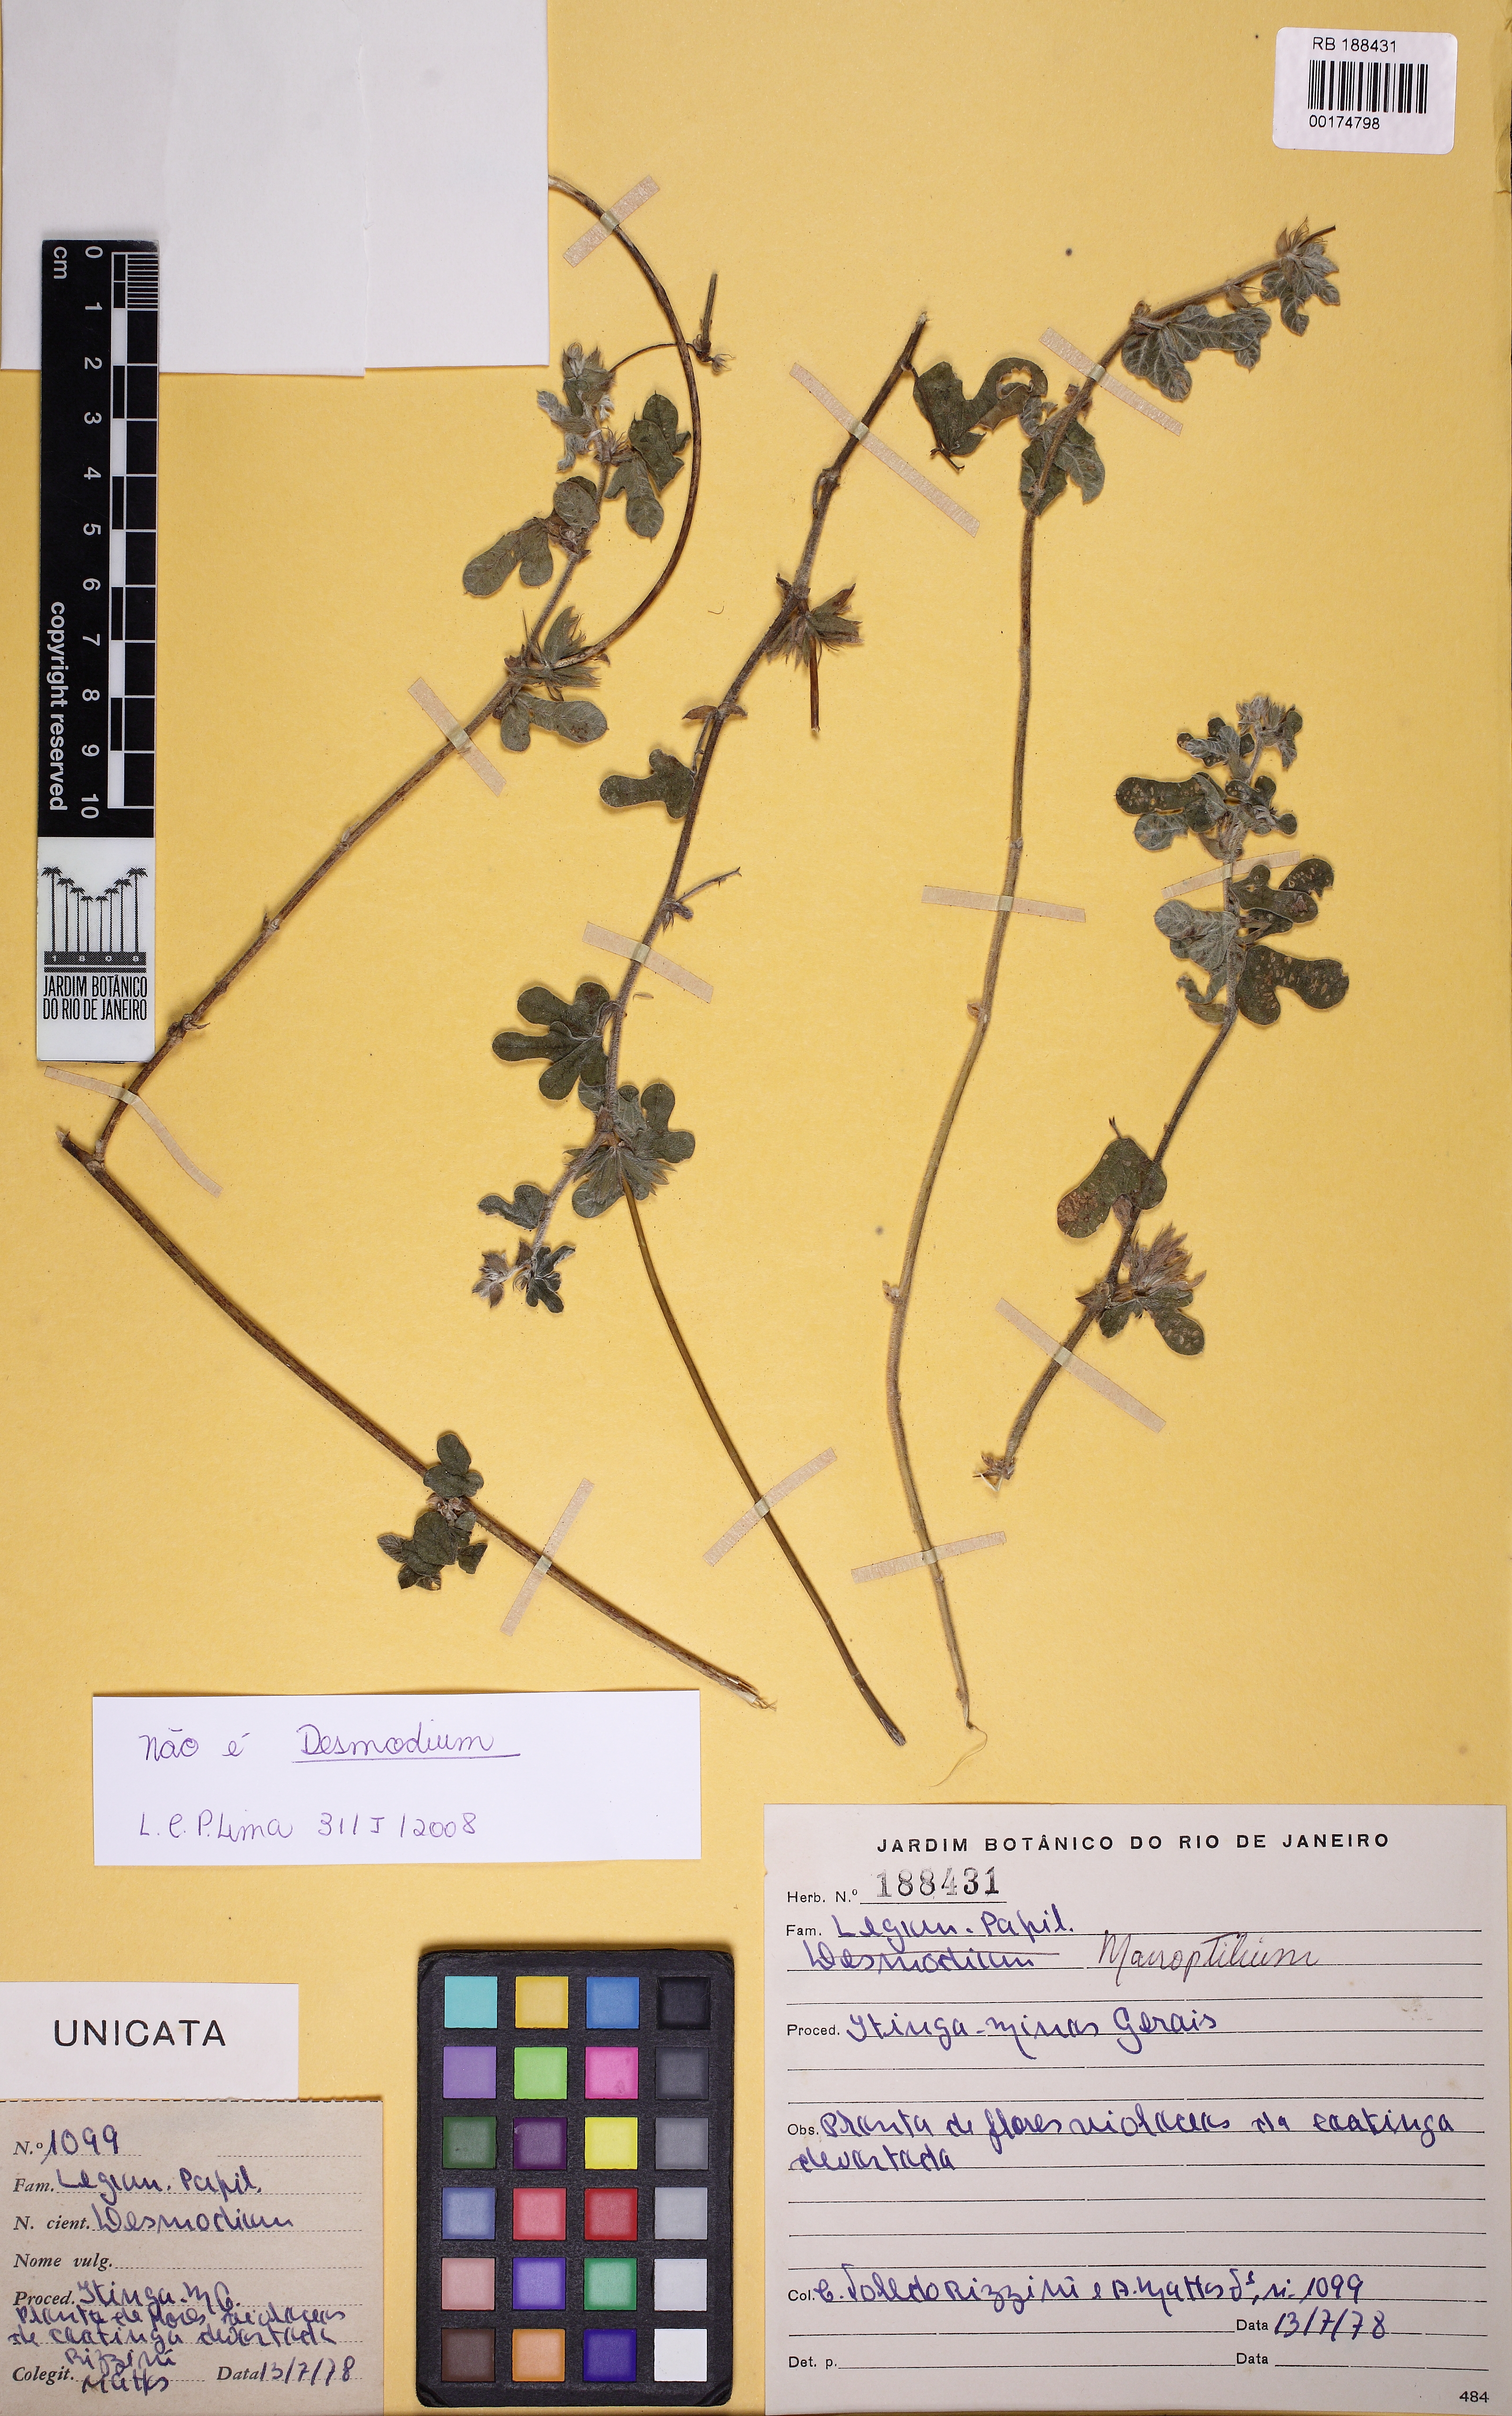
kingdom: Plantae
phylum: Tracheophyta
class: Magnoliopsida
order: Fabales
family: Fabaceae
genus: Macroptilium
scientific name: Macroptilium panduratum
